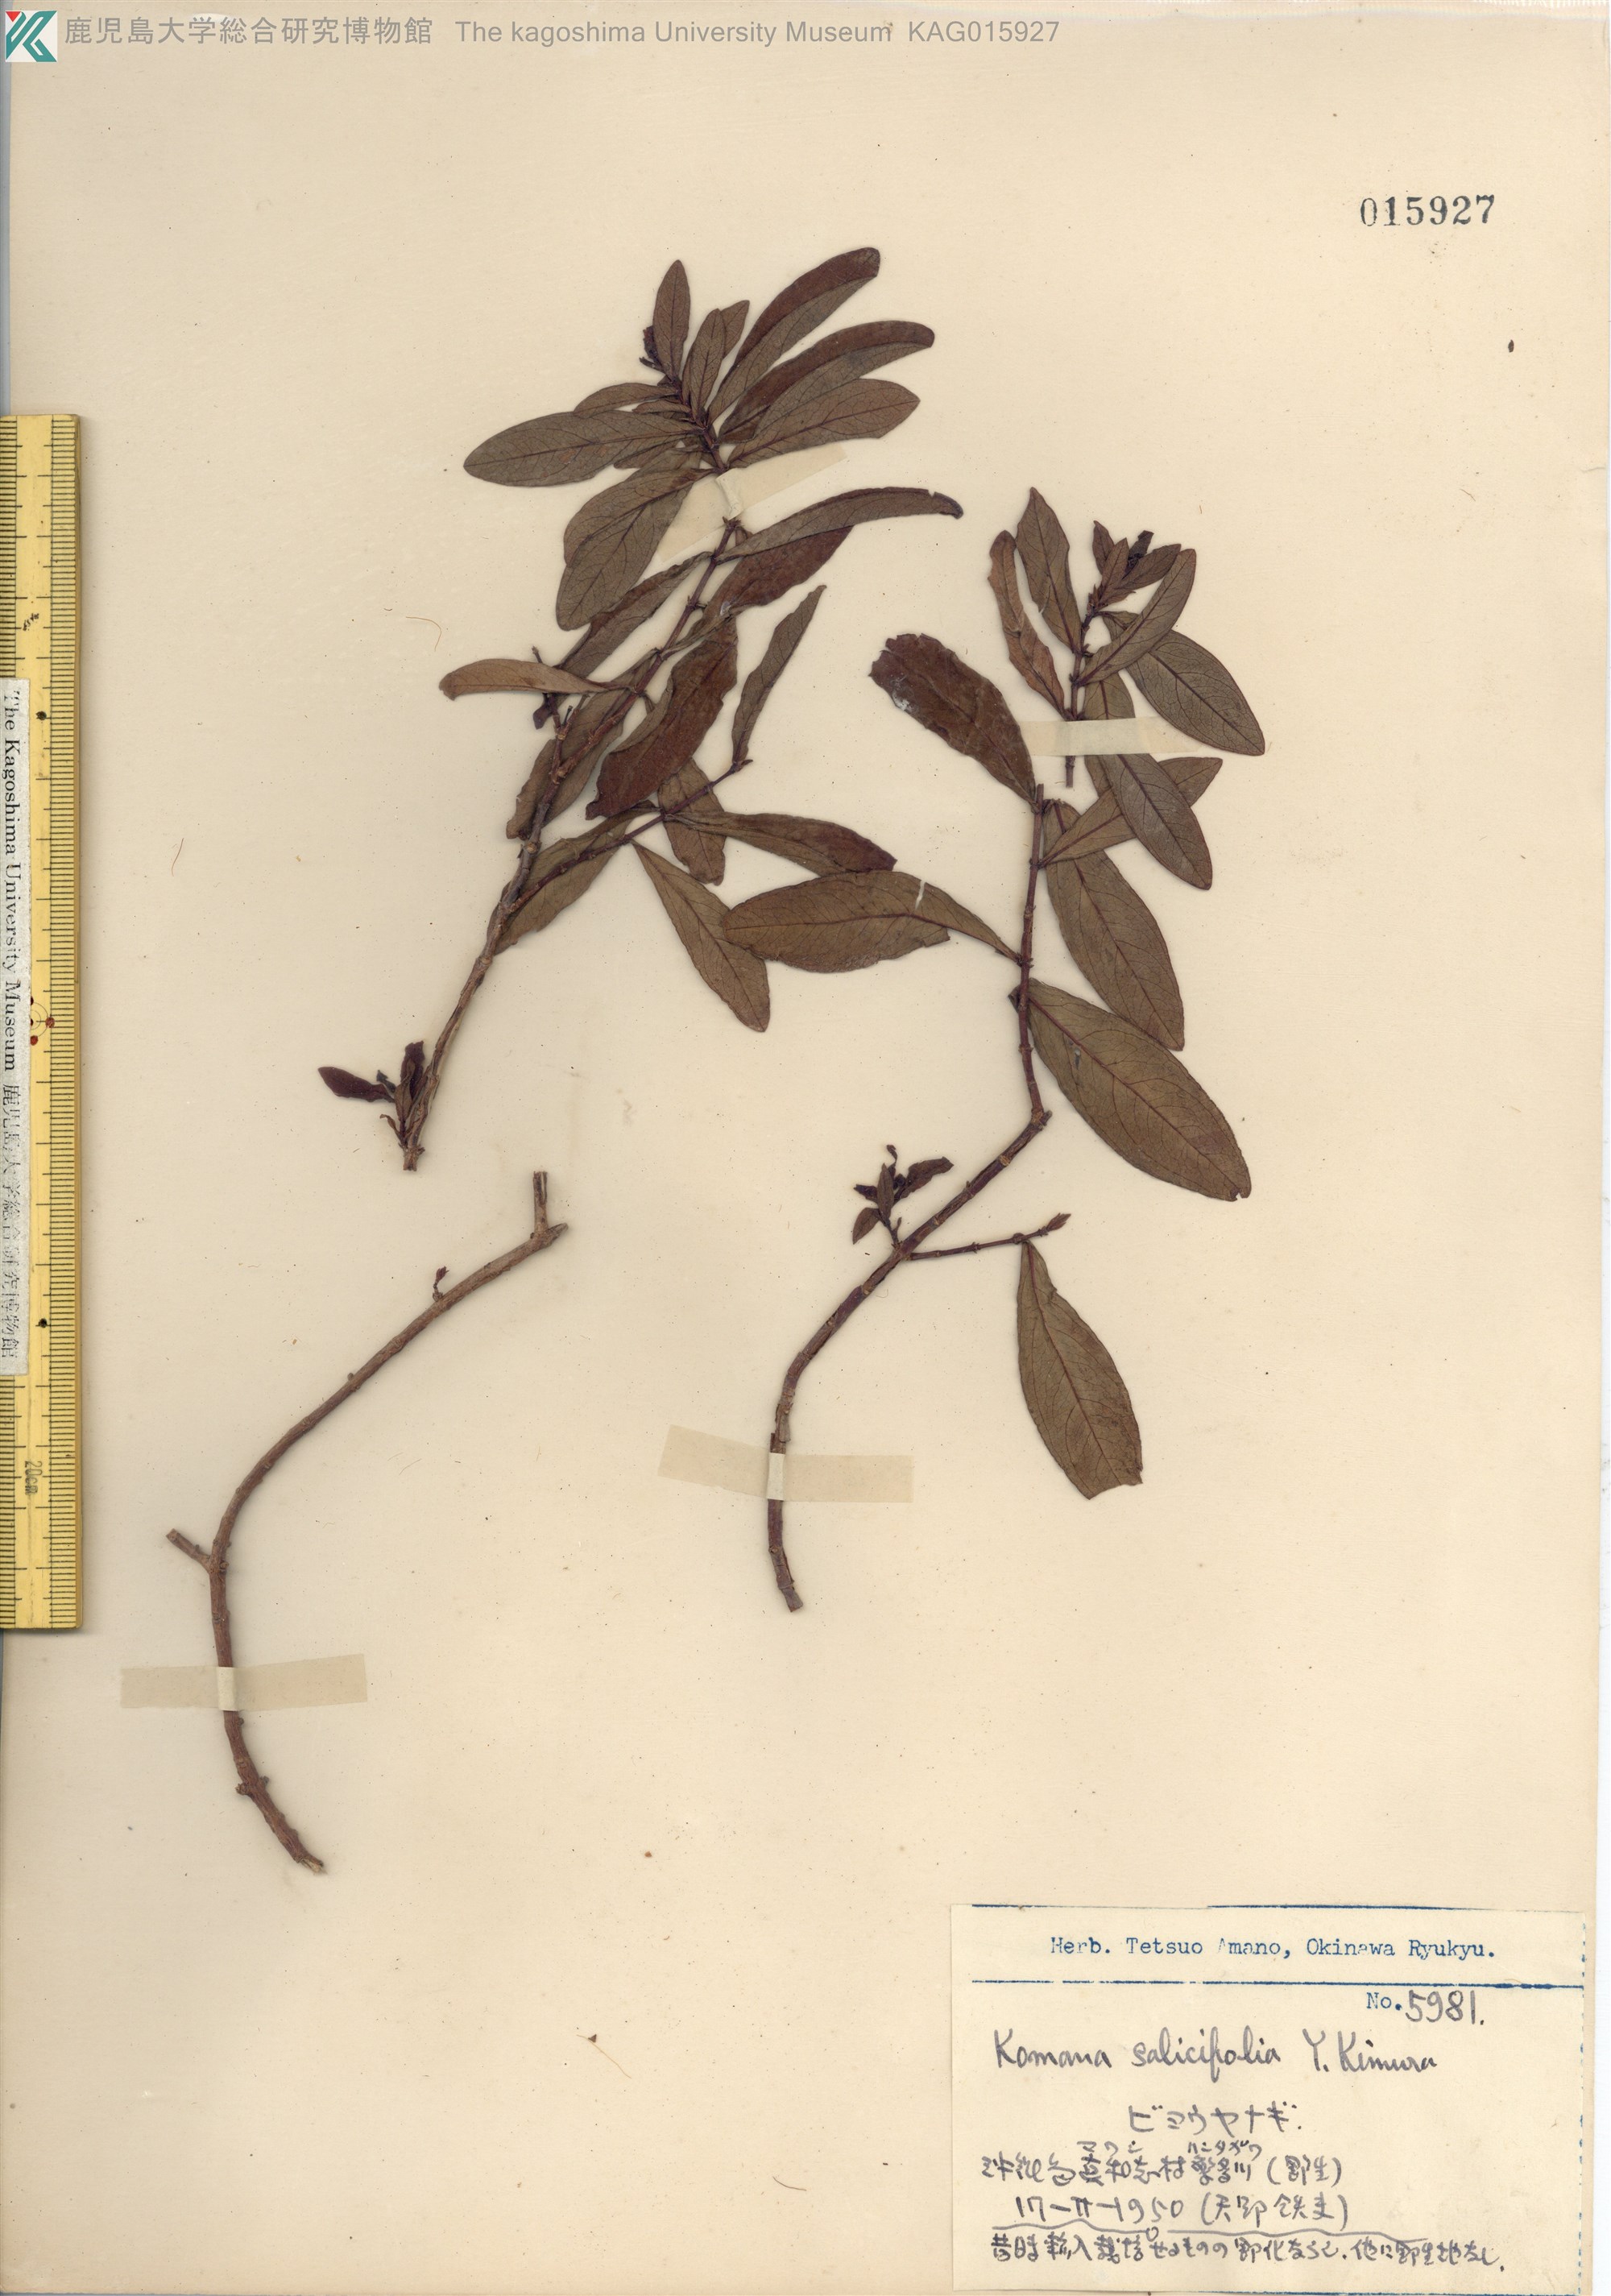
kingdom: Plantae
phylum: Tracheophyta
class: Magnoliopsida
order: Malpighiales
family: Hypericaceae
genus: Hypericum
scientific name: Hypericum monogynum
